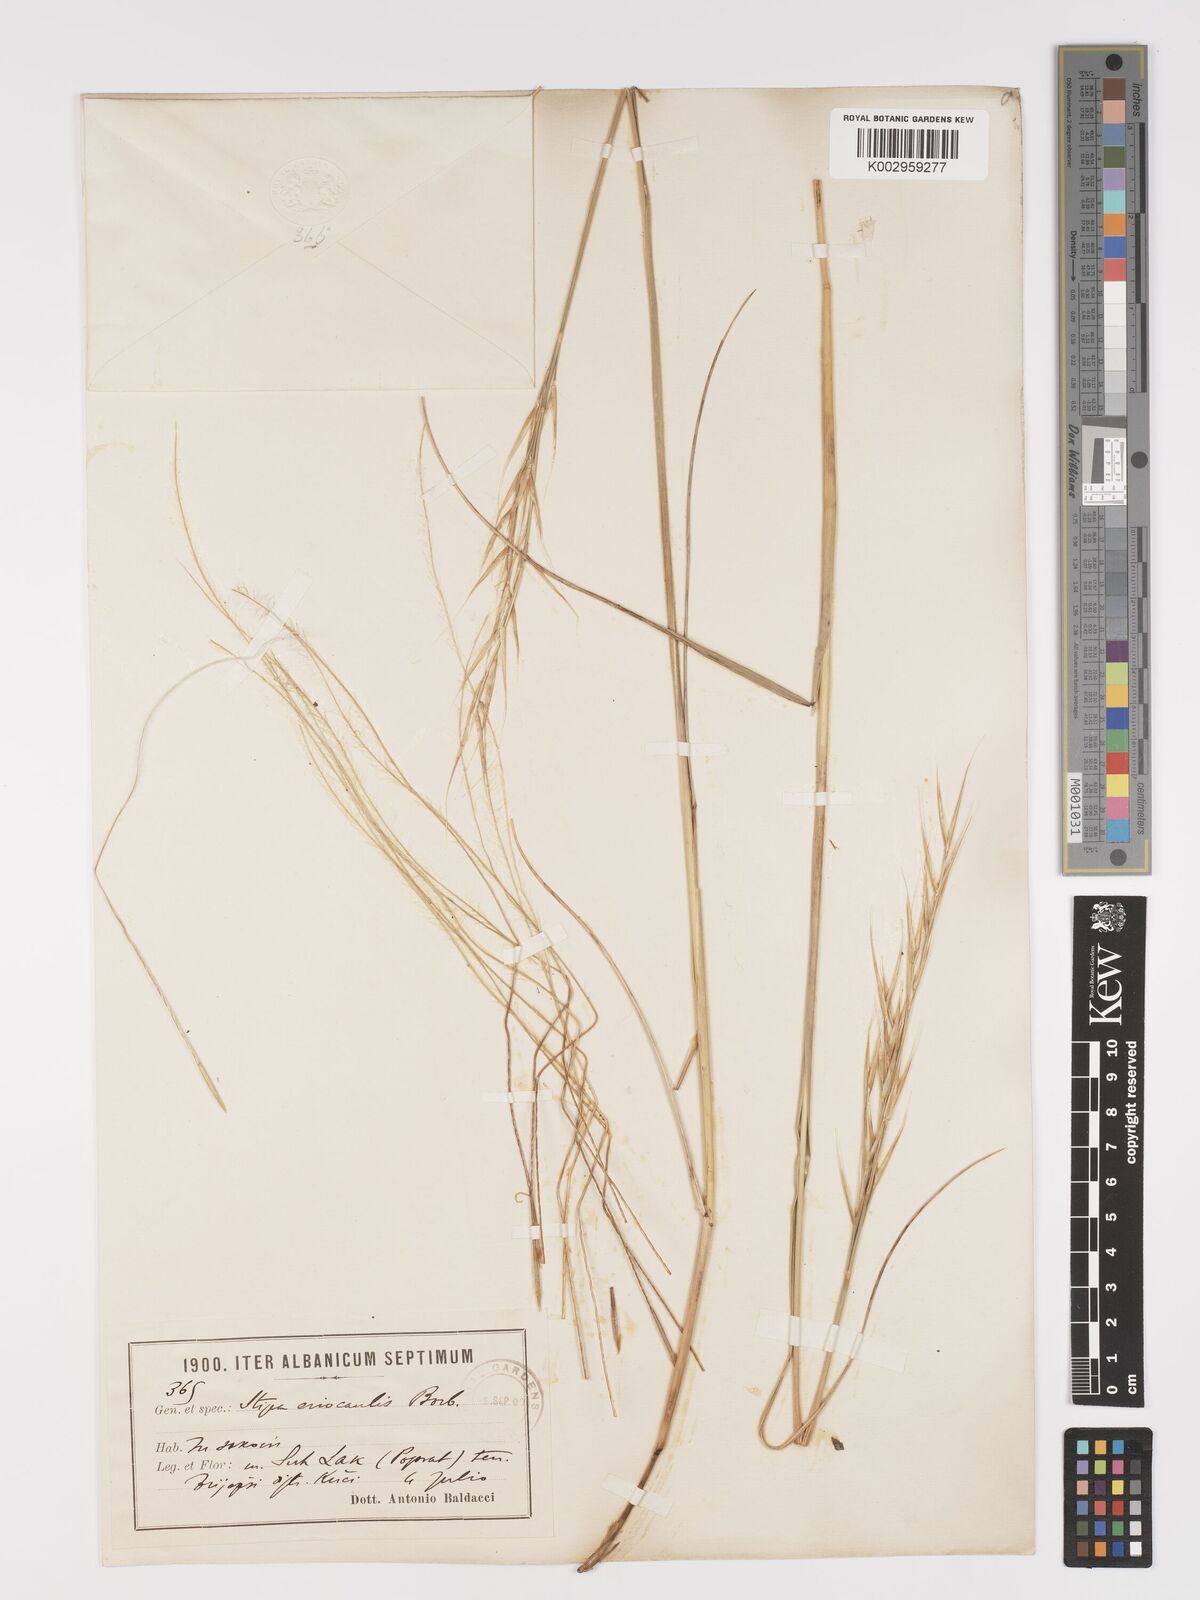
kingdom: Plantae
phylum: Tracheophyta
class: Liliopsida
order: Poales
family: Poaceae
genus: Stipa
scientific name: Stipa pulcherrima
